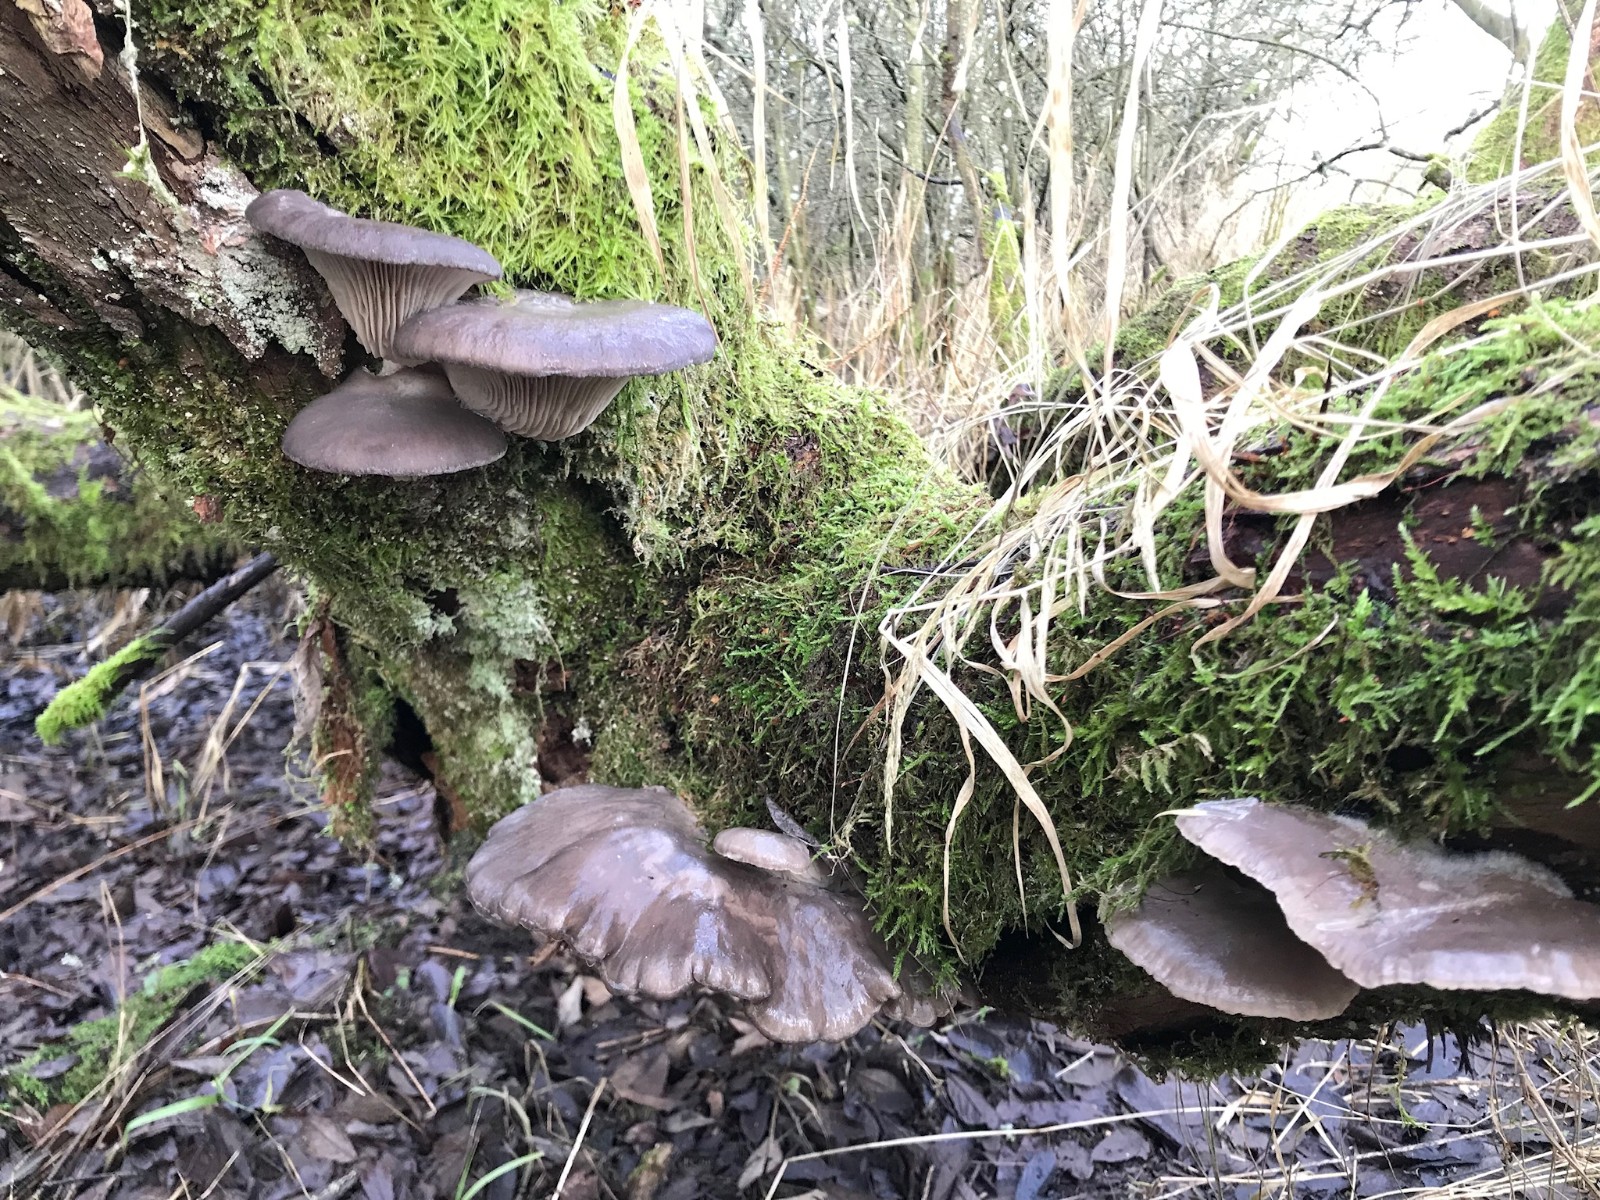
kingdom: Fungi
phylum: Basidiomycota
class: Agaricomycetes
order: Agaricales
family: Pleurotaceae
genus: Pleurotus
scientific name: Pleurotus ostreatus
